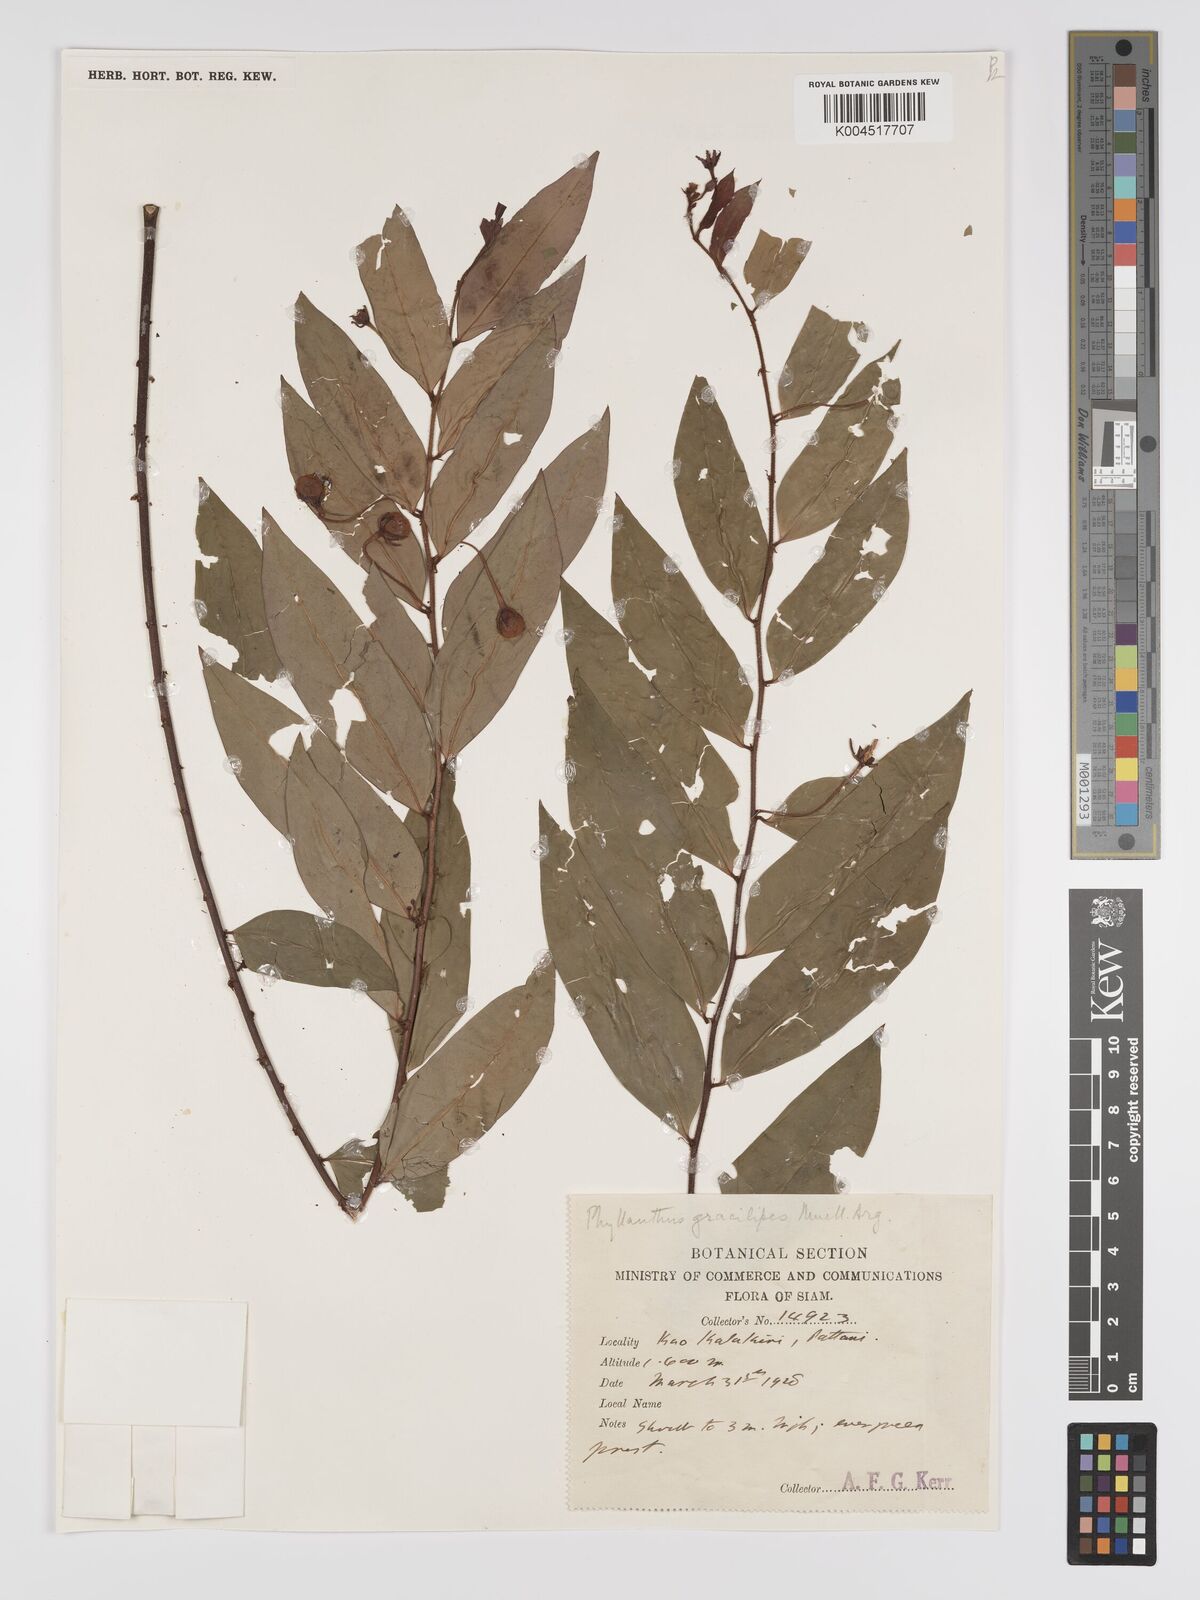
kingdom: Plantae
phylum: Tracheophyta
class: Magnoliopsida
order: Malpighiales
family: Phyllanthaceae
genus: Phyllanthus
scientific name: Phyllanthus
